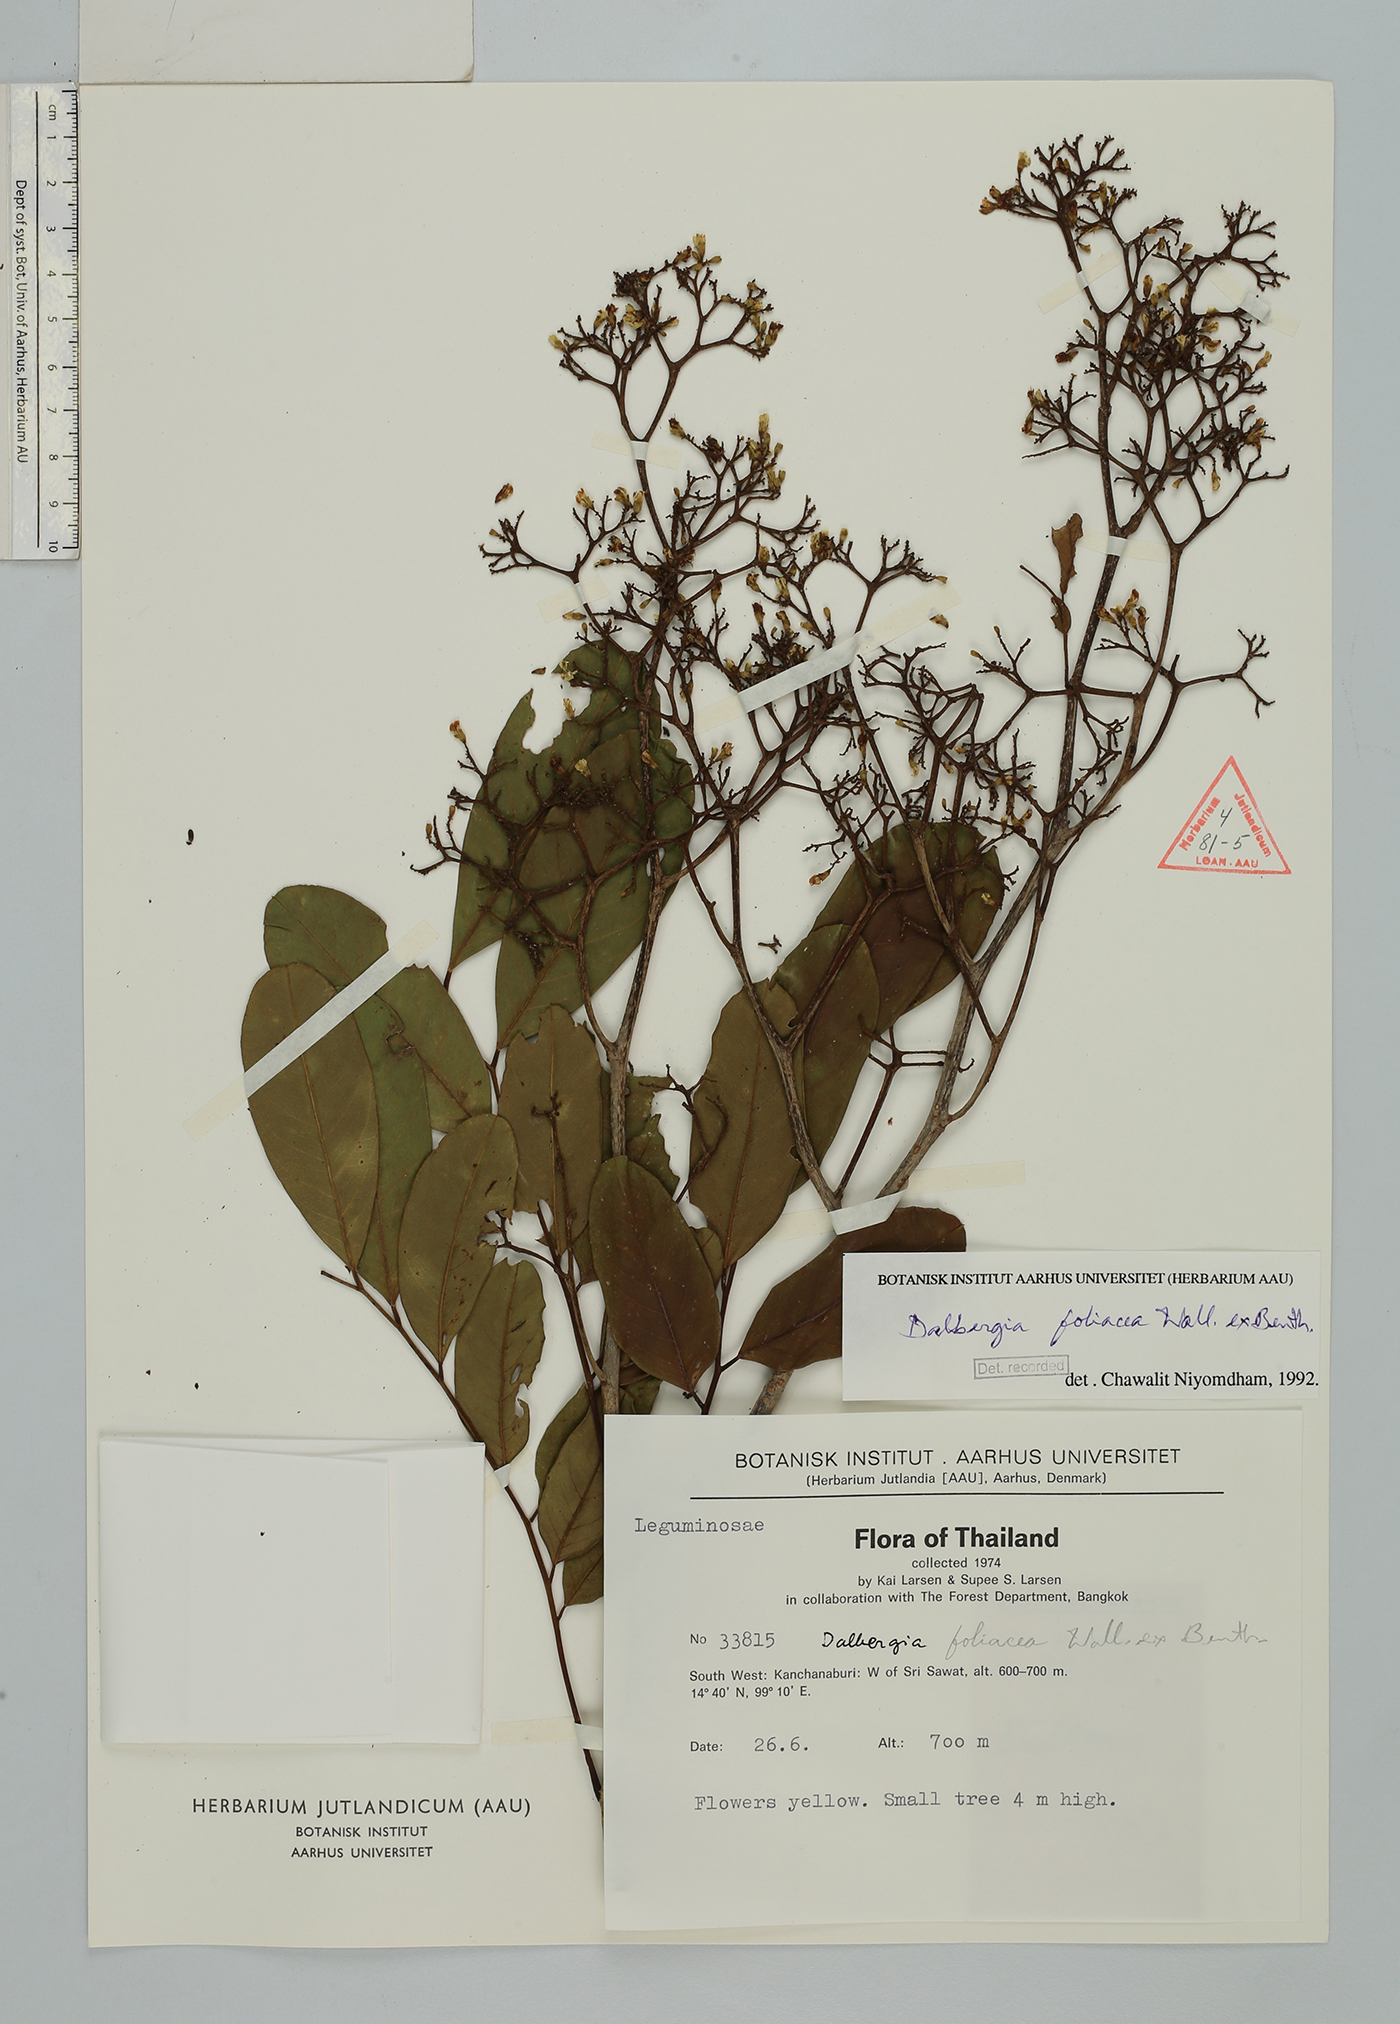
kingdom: Plantae
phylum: Tracheophyta
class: Magnoliopsida
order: Fabales
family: Fabaceae
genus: Dalbergia
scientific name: Dalbergia foliosa
